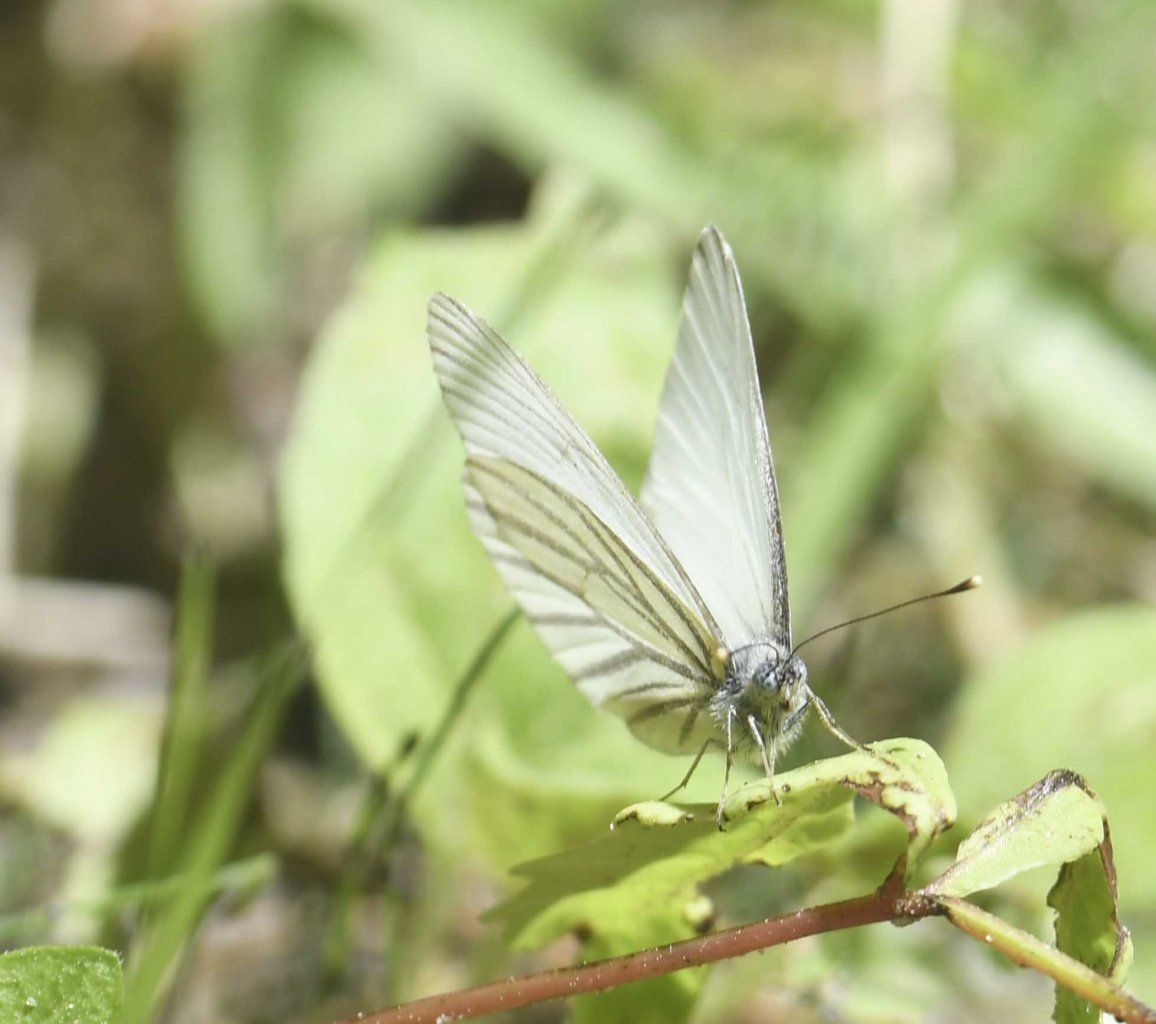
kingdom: Animalia
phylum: Arthropoda
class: Insecta
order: Lepidoptera
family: Pieridae
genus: Pieris
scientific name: Pieris oleracea
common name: Mustard White
